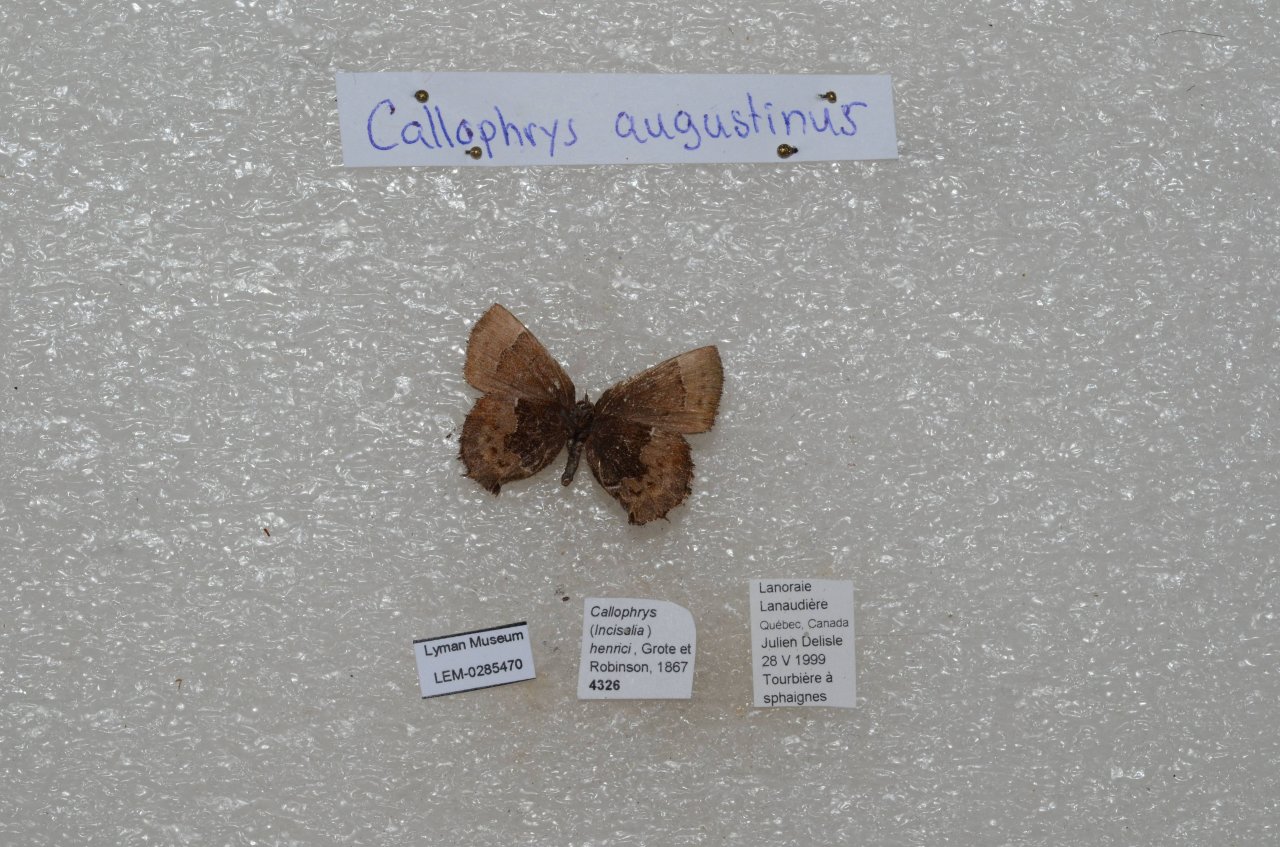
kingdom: Animalia
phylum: Arthropoda
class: Insecta
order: Lepidoptera
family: Lycaenidae
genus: Incisalia
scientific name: Incisalia irioides
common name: Brown Elfin
